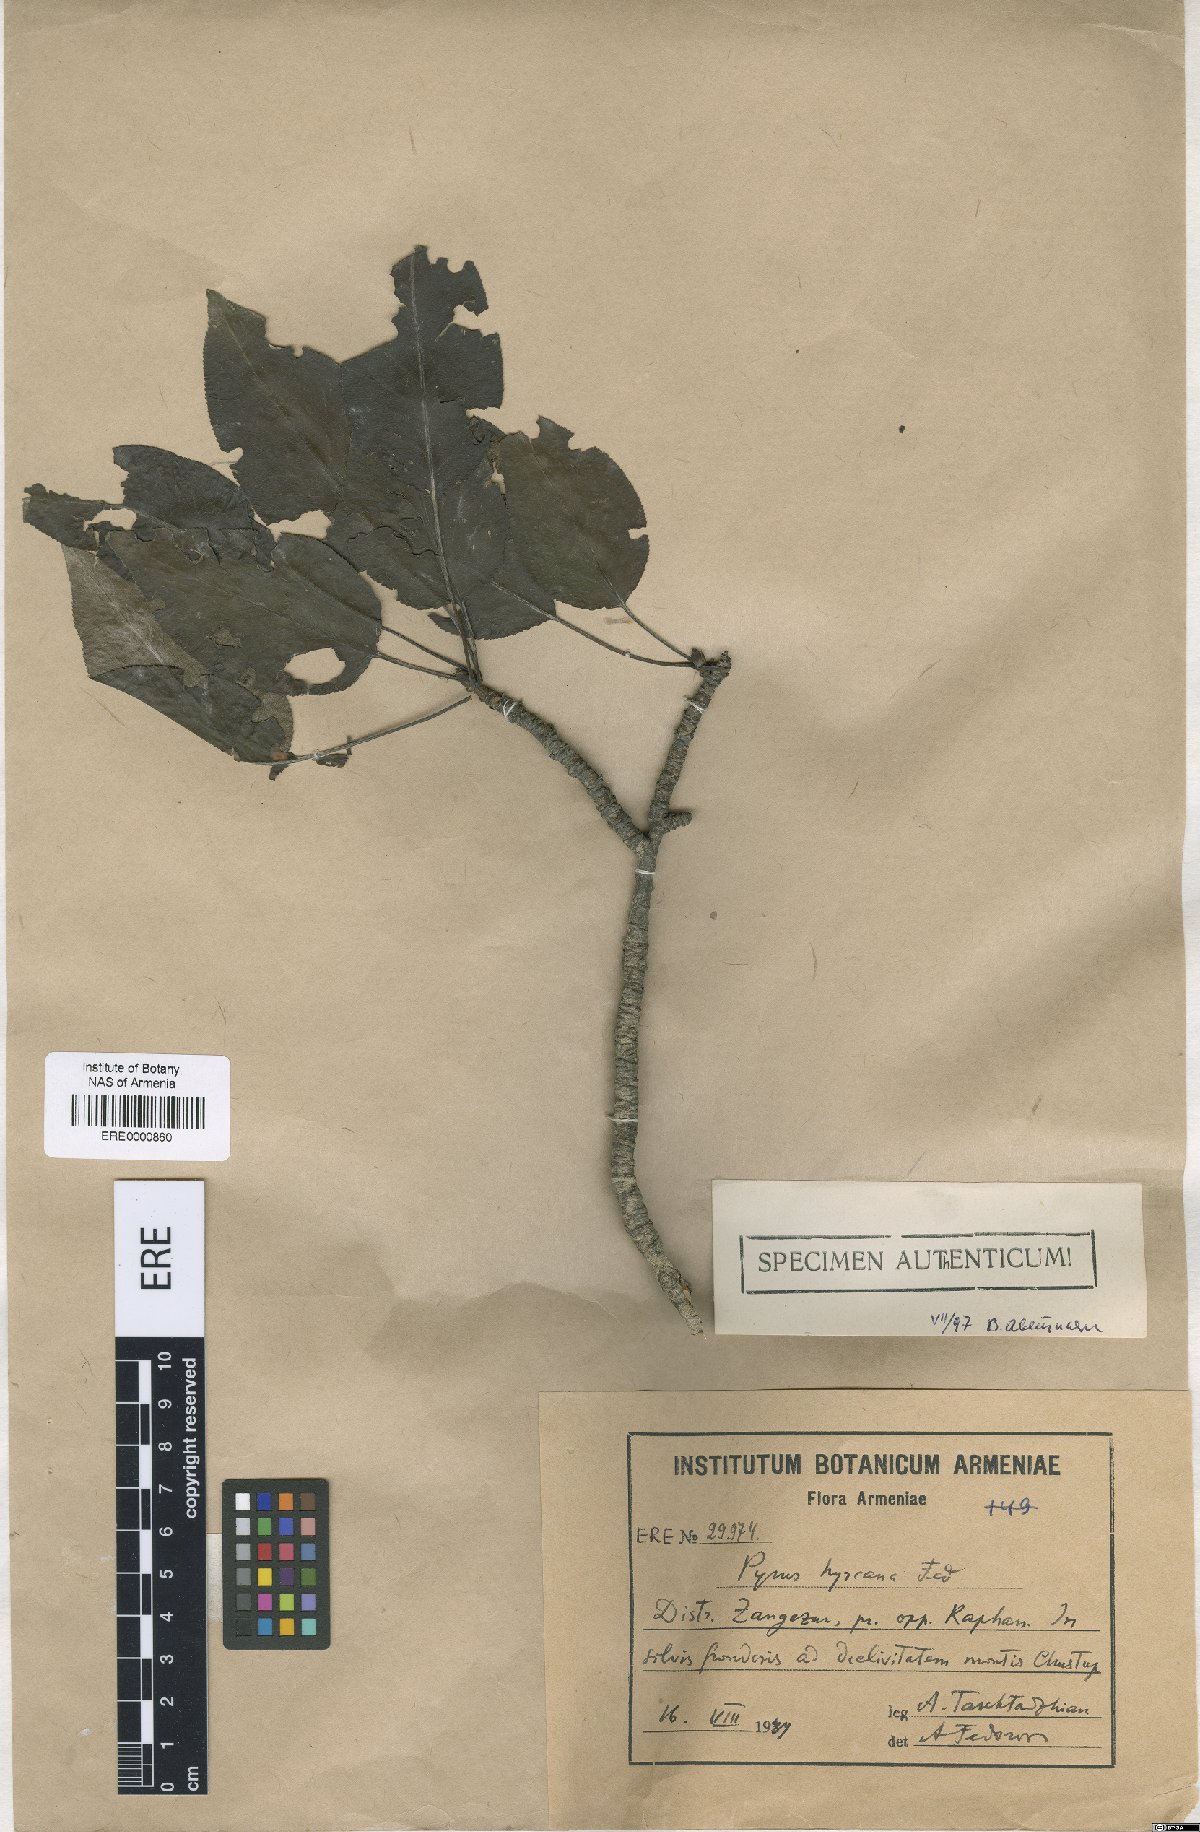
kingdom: Plantae
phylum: Tracheophyta
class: Magnoliopsida
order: Rosales
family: Rosaceae
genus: Pyrus
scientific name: Pyrus hyrcana
